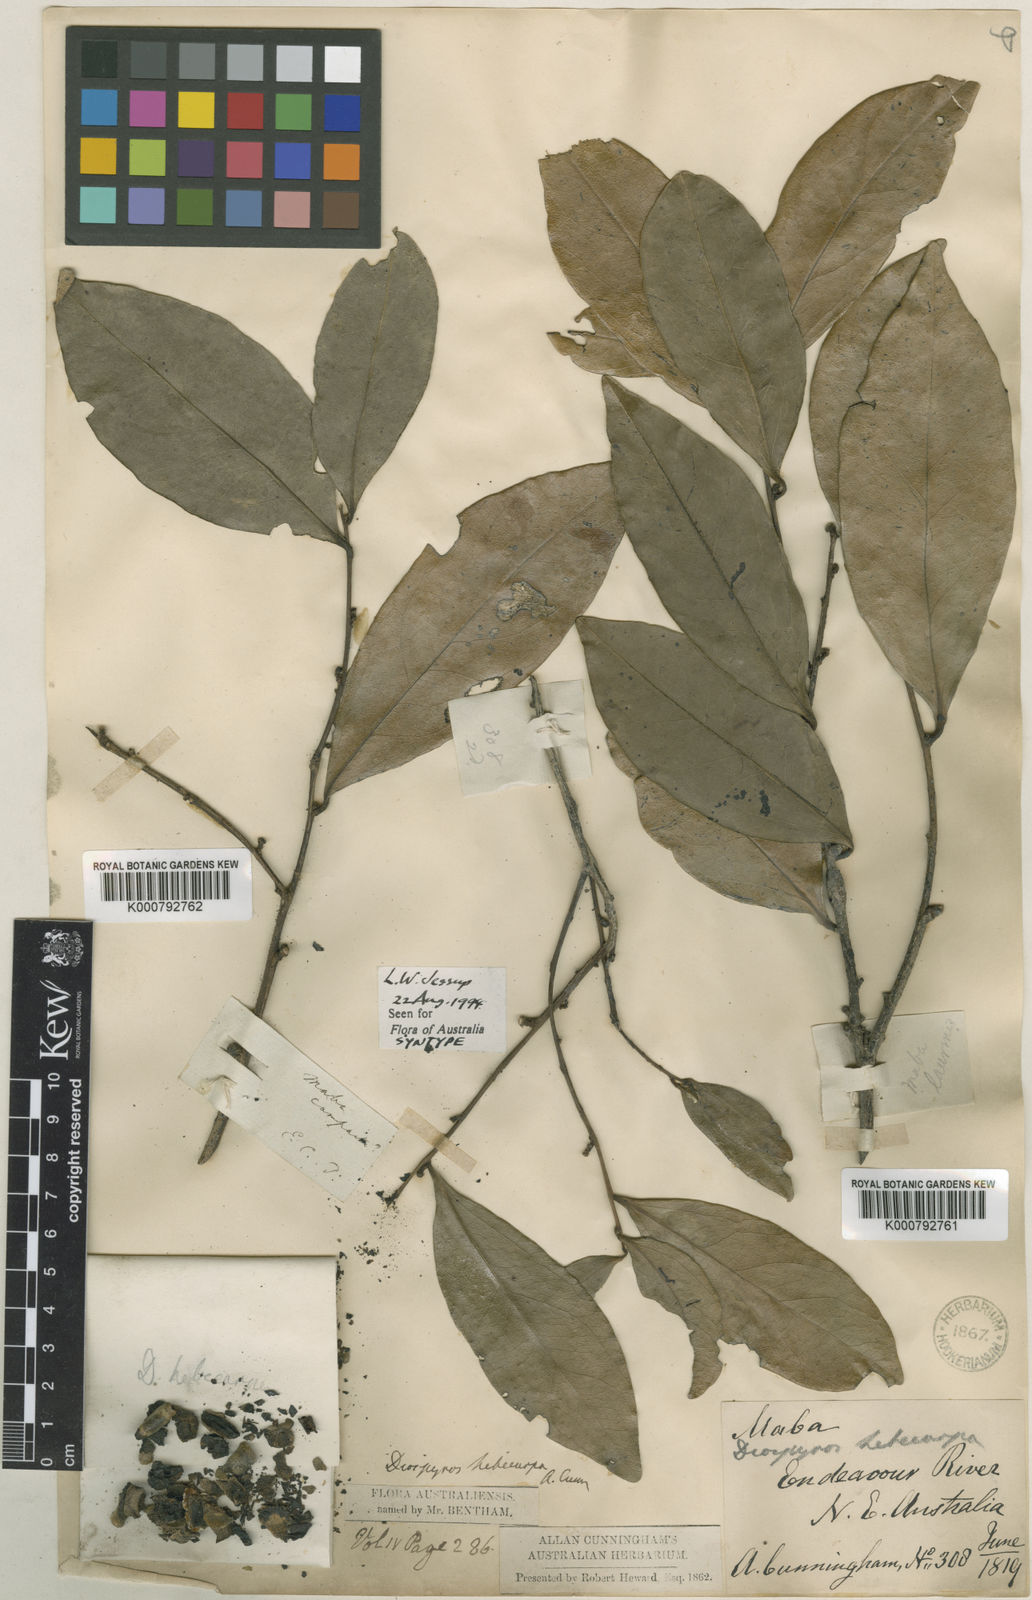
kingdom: Plantae
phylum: Tracheophyta
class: Magnoliopsida
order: Ericales
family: Ebenaceae
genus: Diospyros
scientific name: Diospyros hebecarpa
